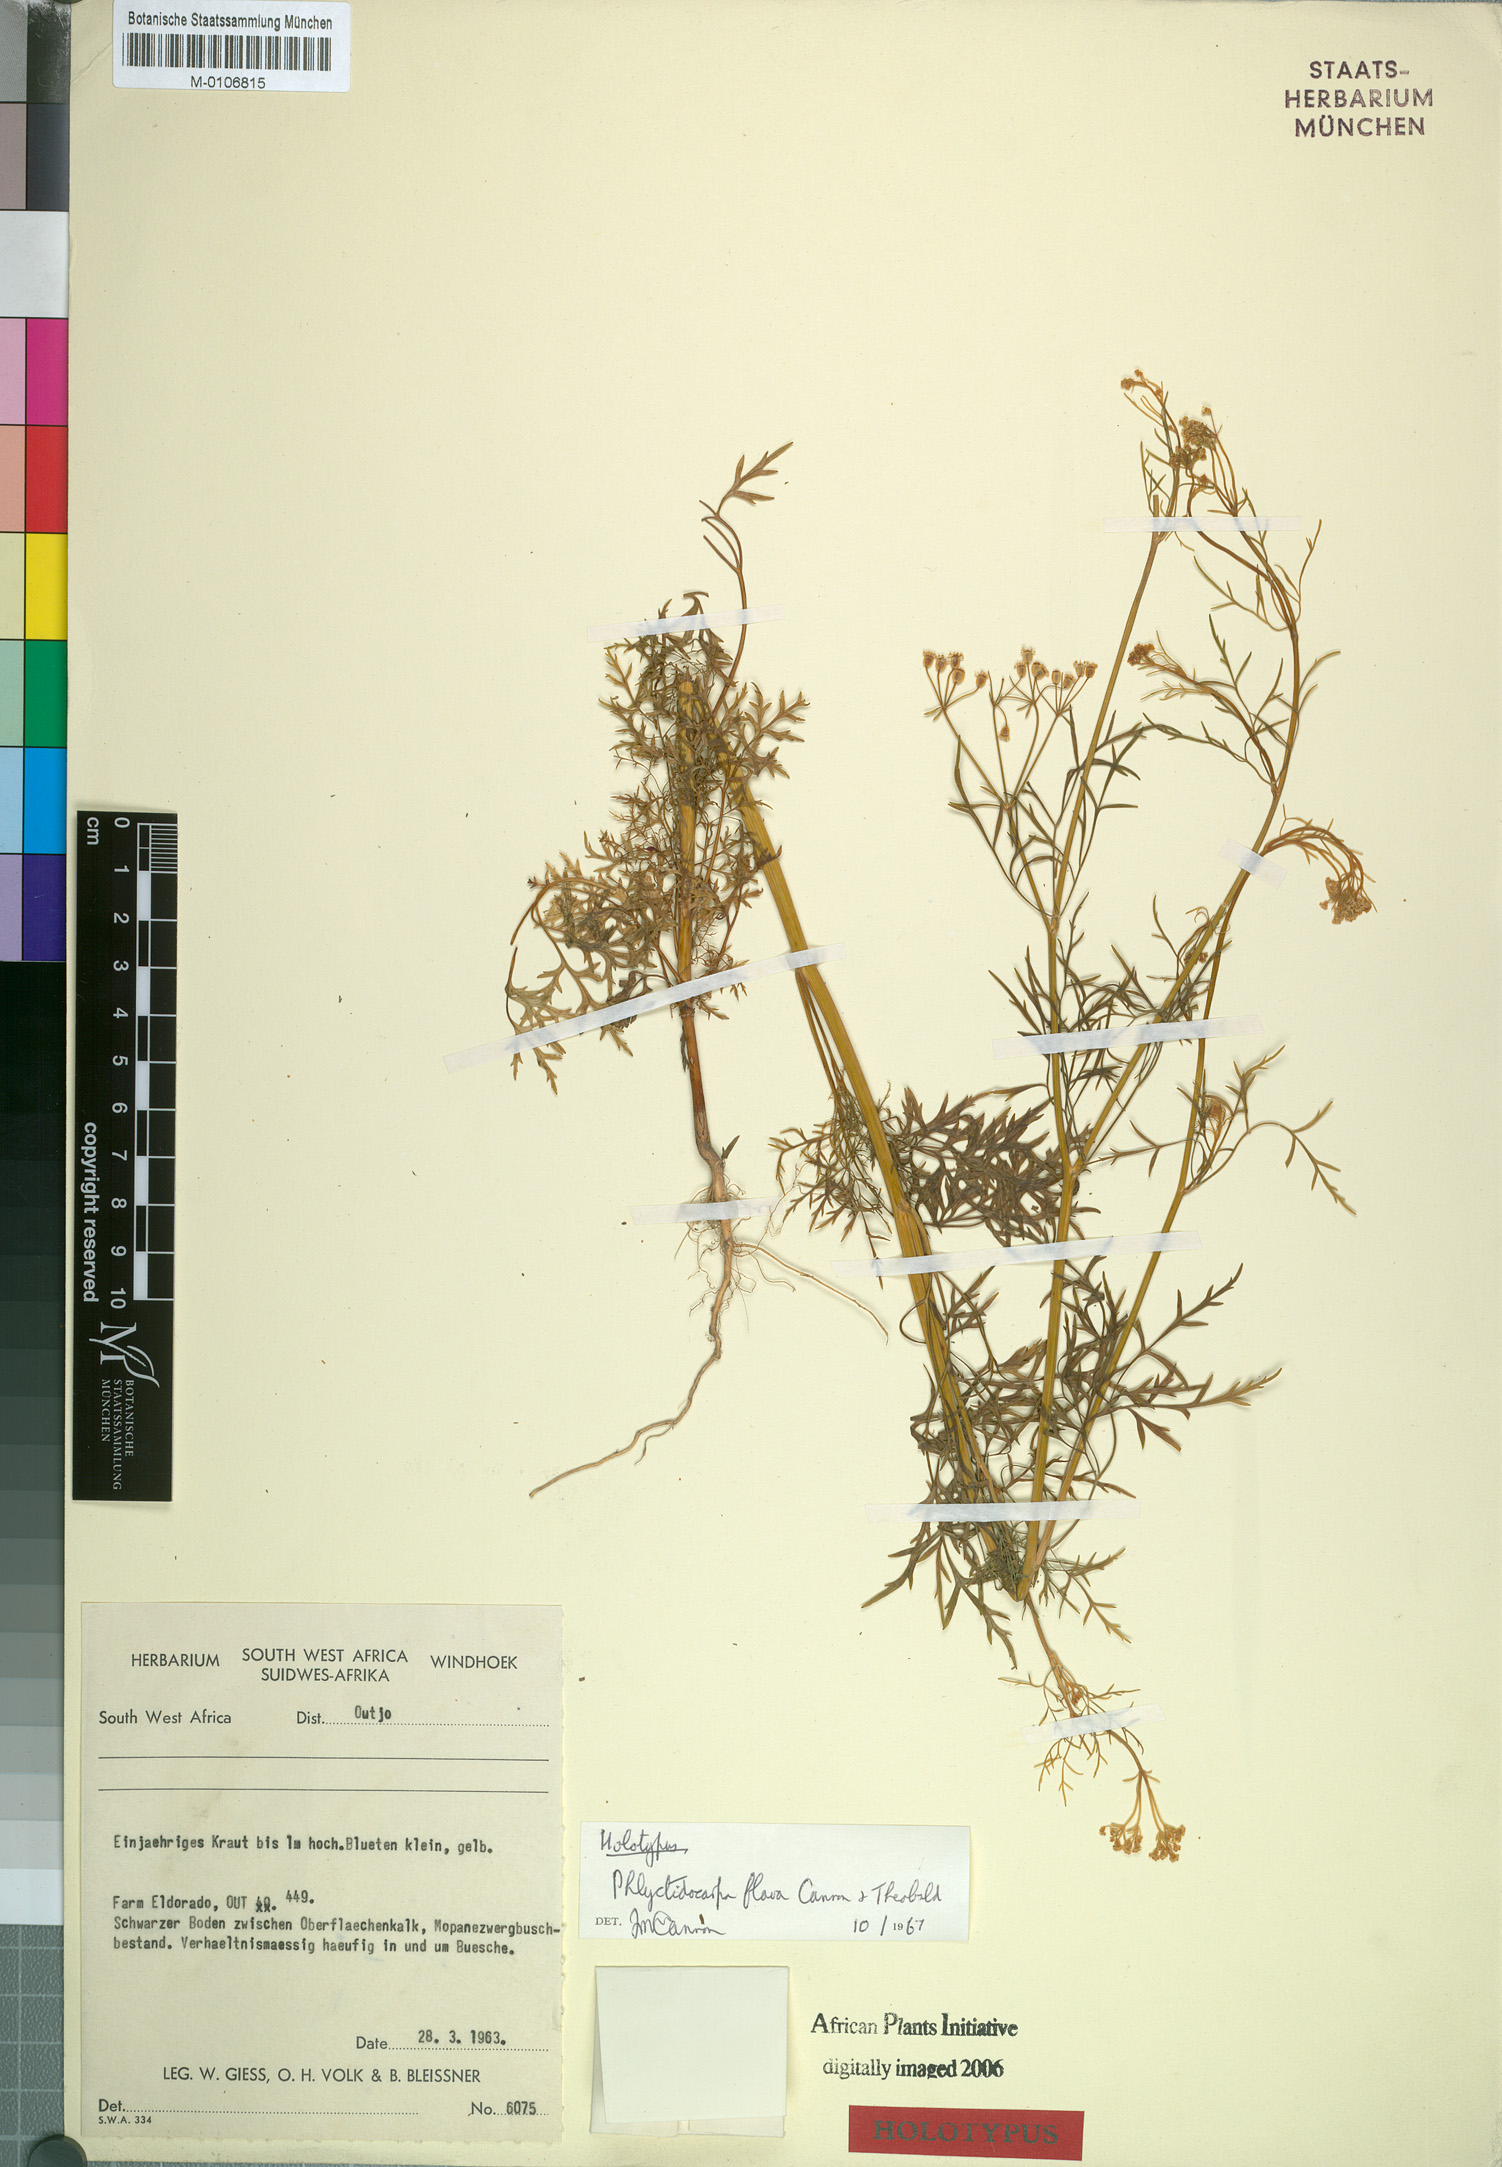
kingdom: Plantae
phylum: Tracheophyta
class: Magnoliopsida
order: Apiales
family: Apiaceae
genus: Phlyctidocarpa
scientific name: Phlyctidocarpa flava
